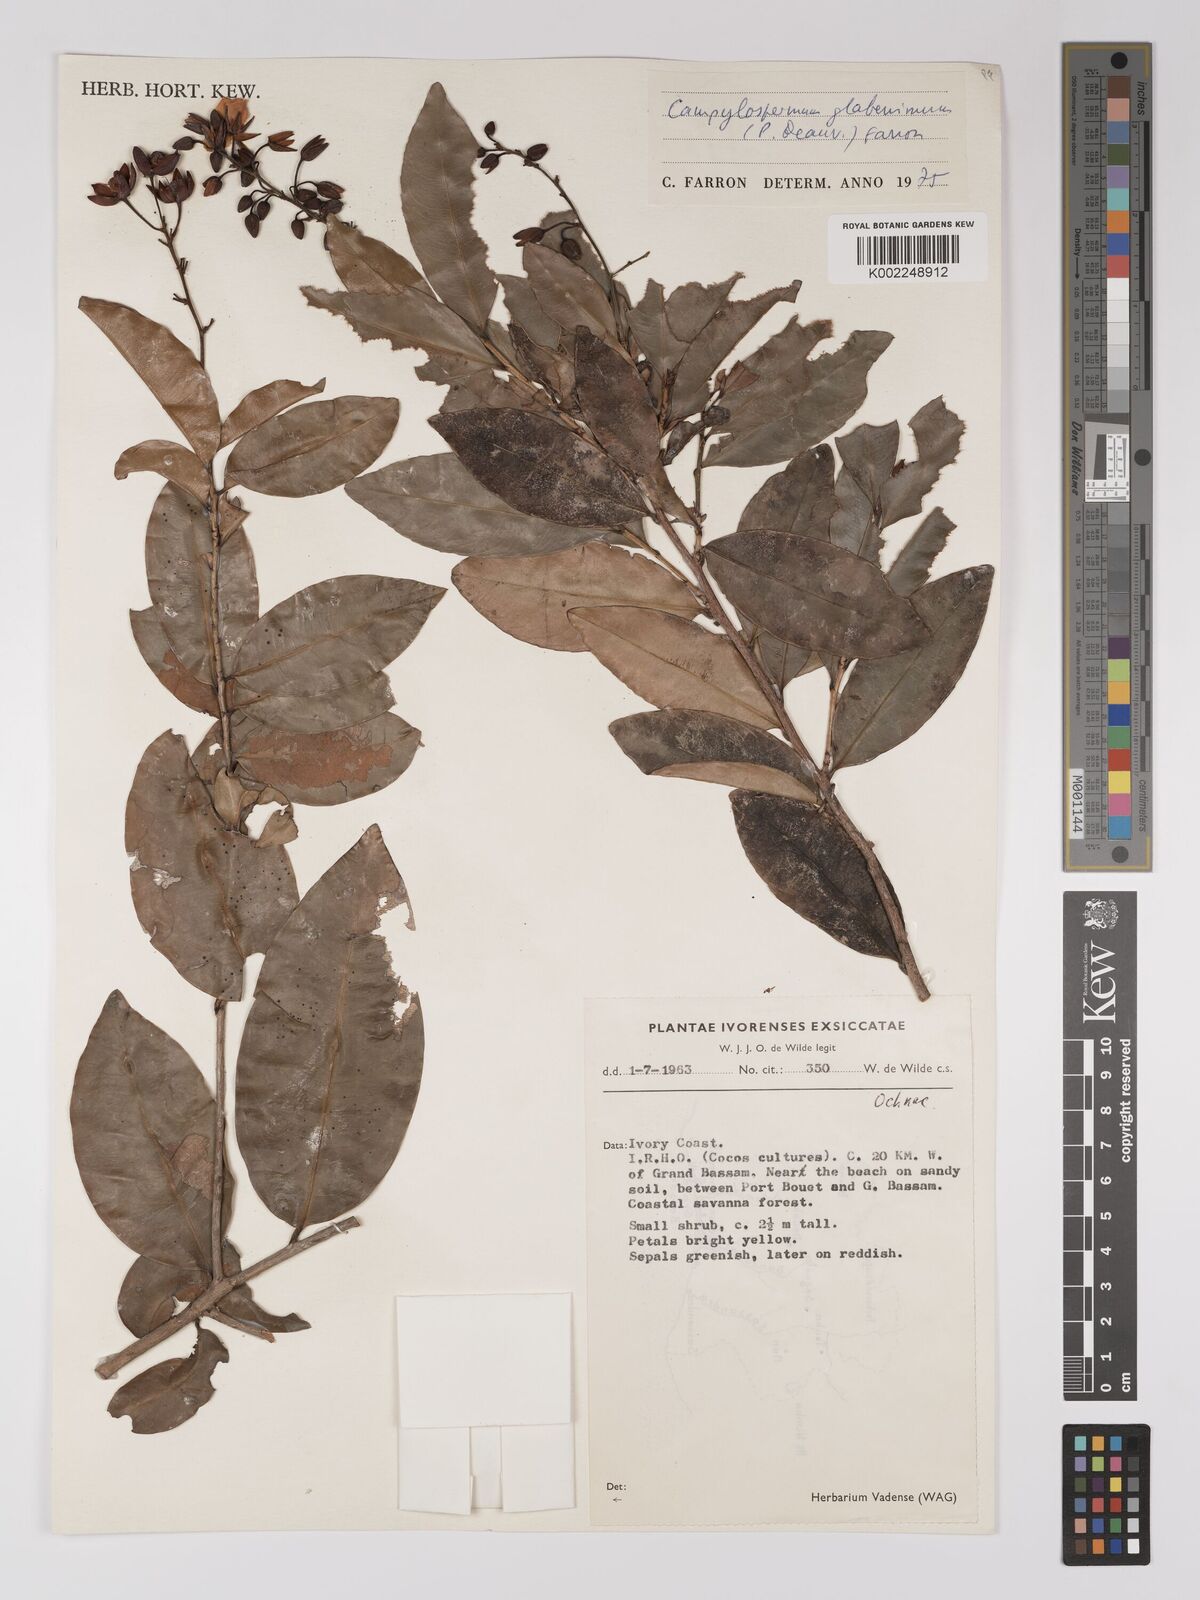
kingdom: Plantae
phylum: Tracheophyta
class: Magnoliopsida
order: Malpighiales
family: Ochnaceae
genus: Campylospermum
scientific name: Campylospermum glaberrimum
